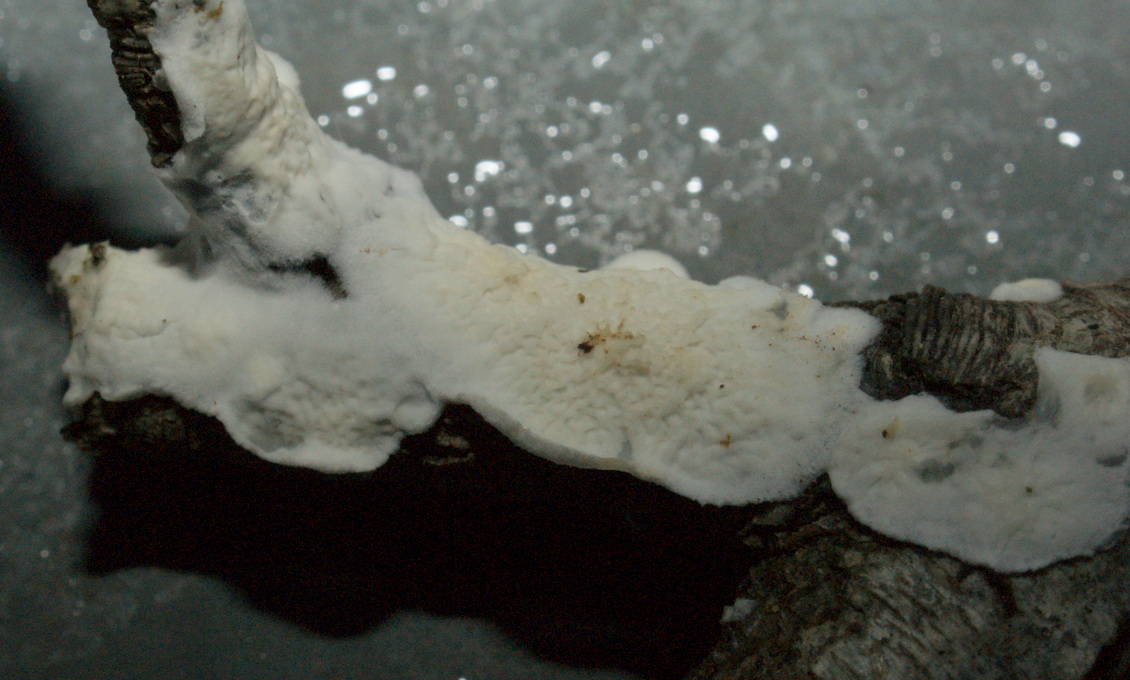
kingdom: Fungi
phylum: Basidiomycota
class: Agaricomycetes
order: Polyporales
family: Irpicaceae
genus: Byssomerulius
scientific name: Byssomerulius corium
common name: læder-åresvamp
